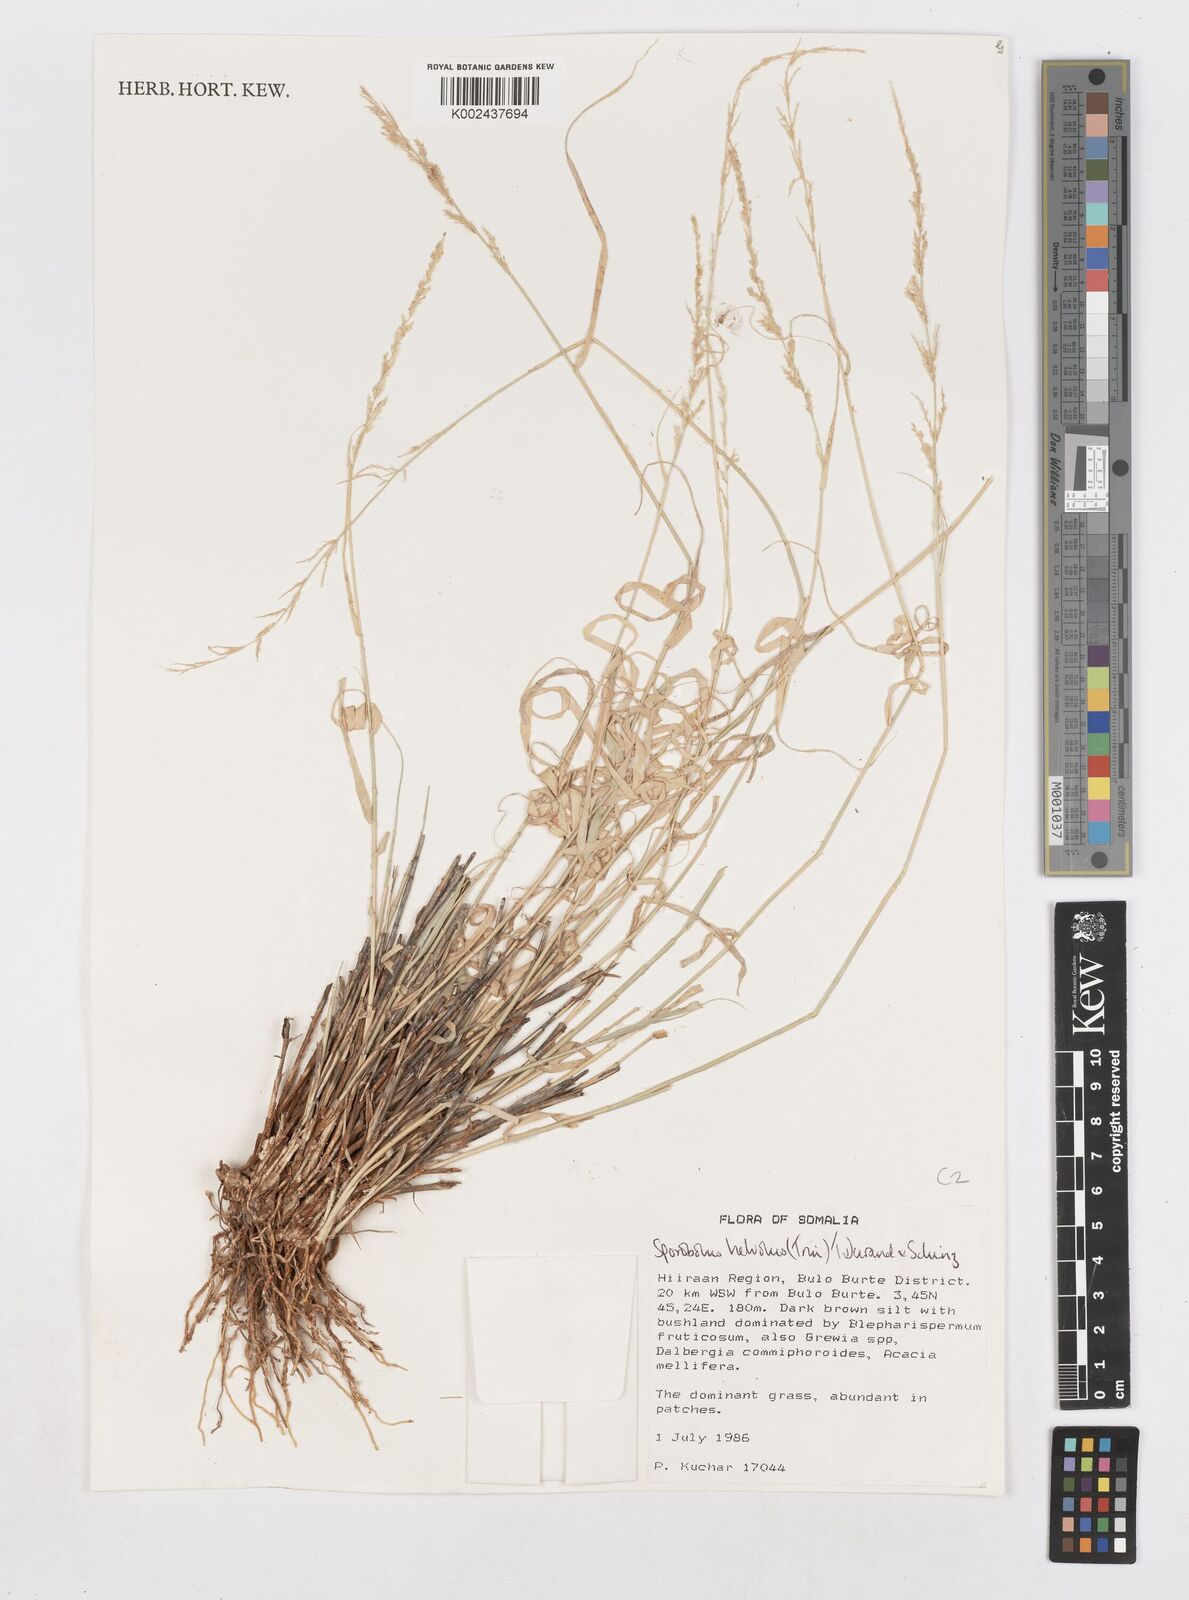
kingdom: Plantae
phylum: Tracheophyta
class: Liliopsida
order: Poales
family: Poaceae
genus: Sporobolus
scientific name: Sporobolus helvolus
